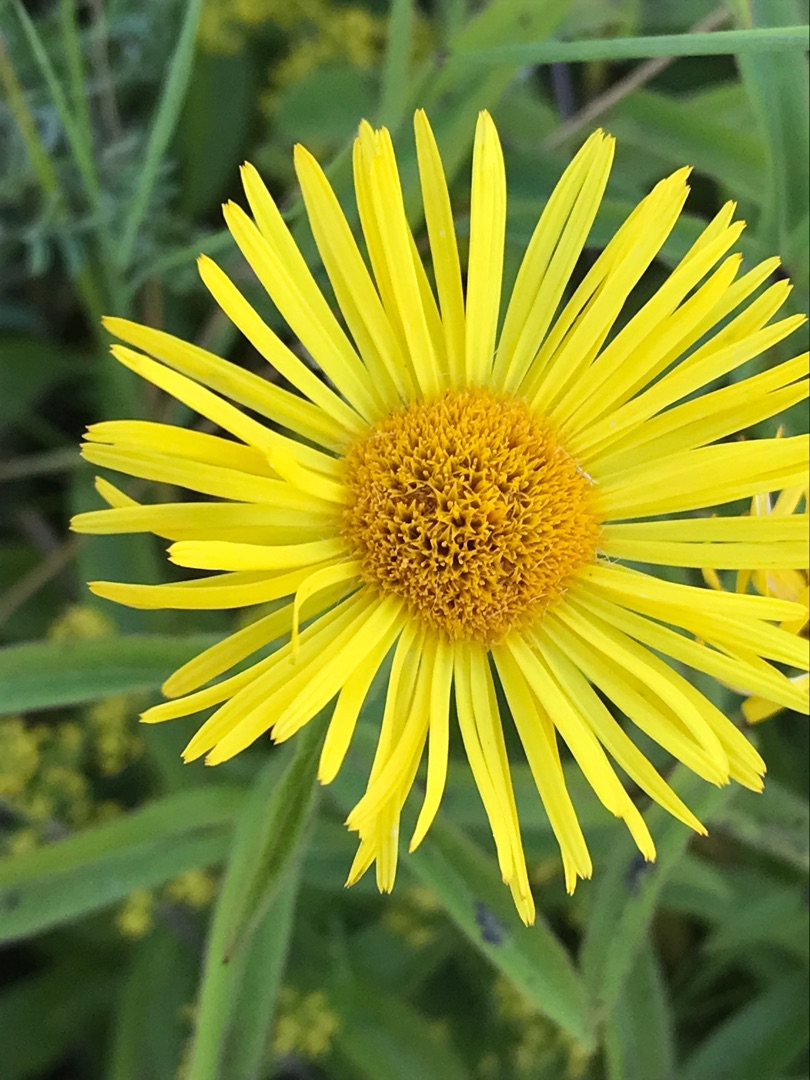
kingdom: Plantae
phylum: Tracheophyta
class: Magnoliopsida
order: Asterales
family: Asteraceae
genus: Pentanema
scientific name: Pentanema salicinum
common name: Pile-alant
